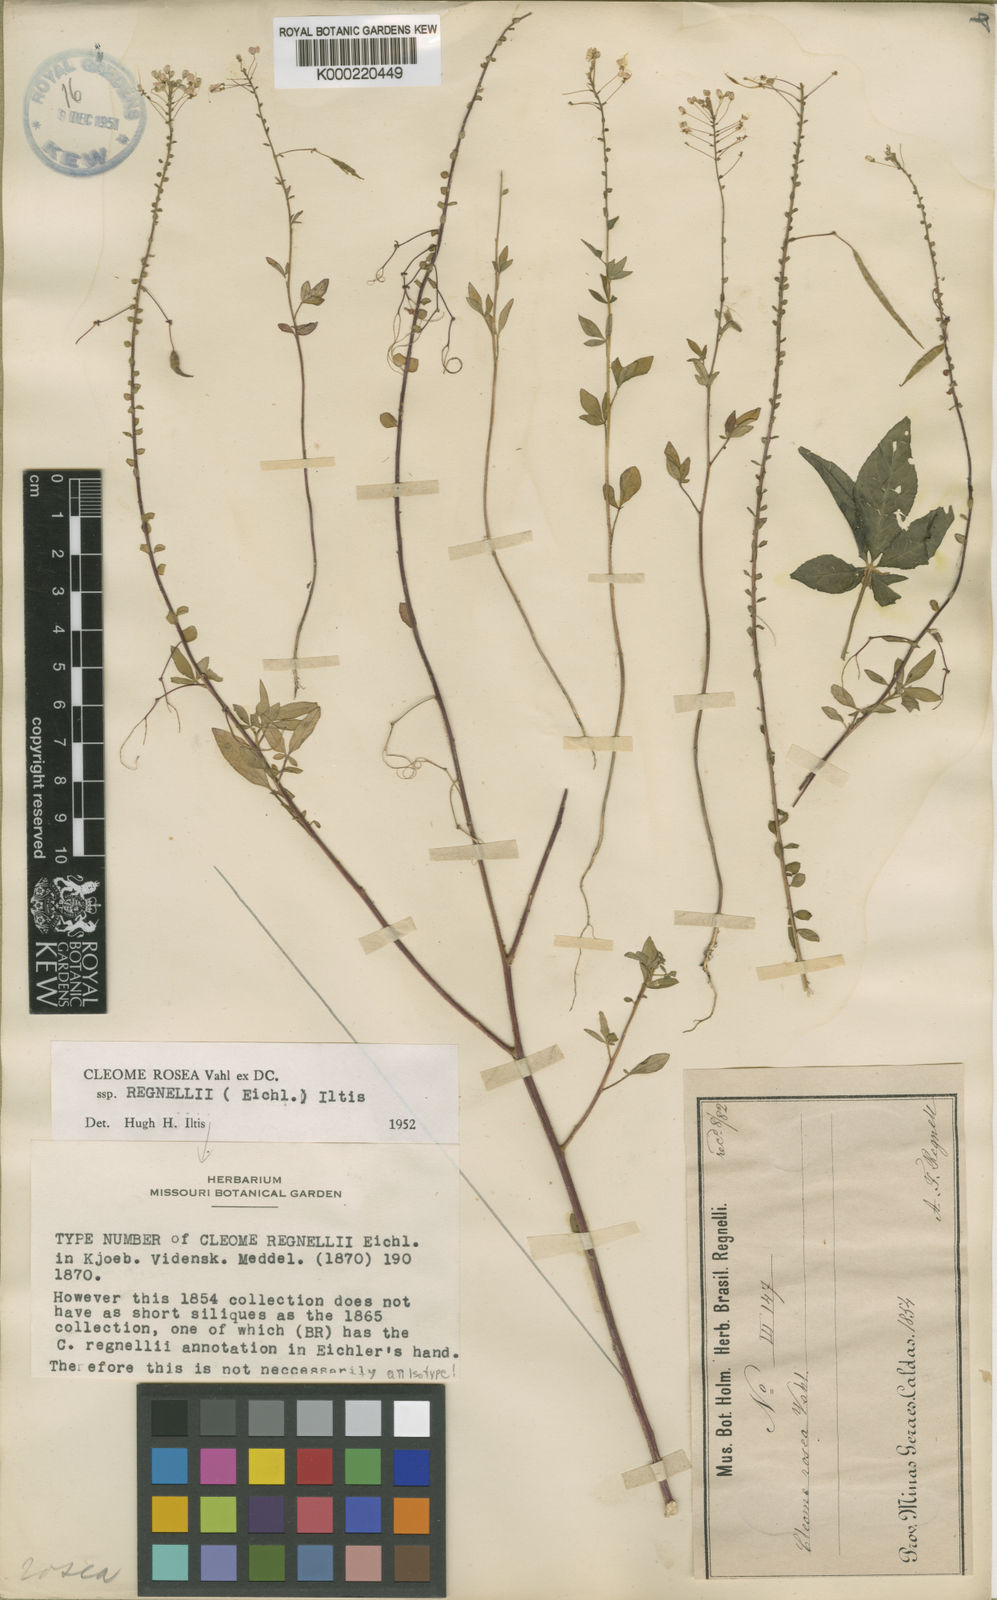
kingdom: Plantae
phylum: Tracheophyta
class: Magnoliopsida
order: Brassicales
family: Cleomaceae
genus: Tarenaya
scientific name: Tarenaya rosea
